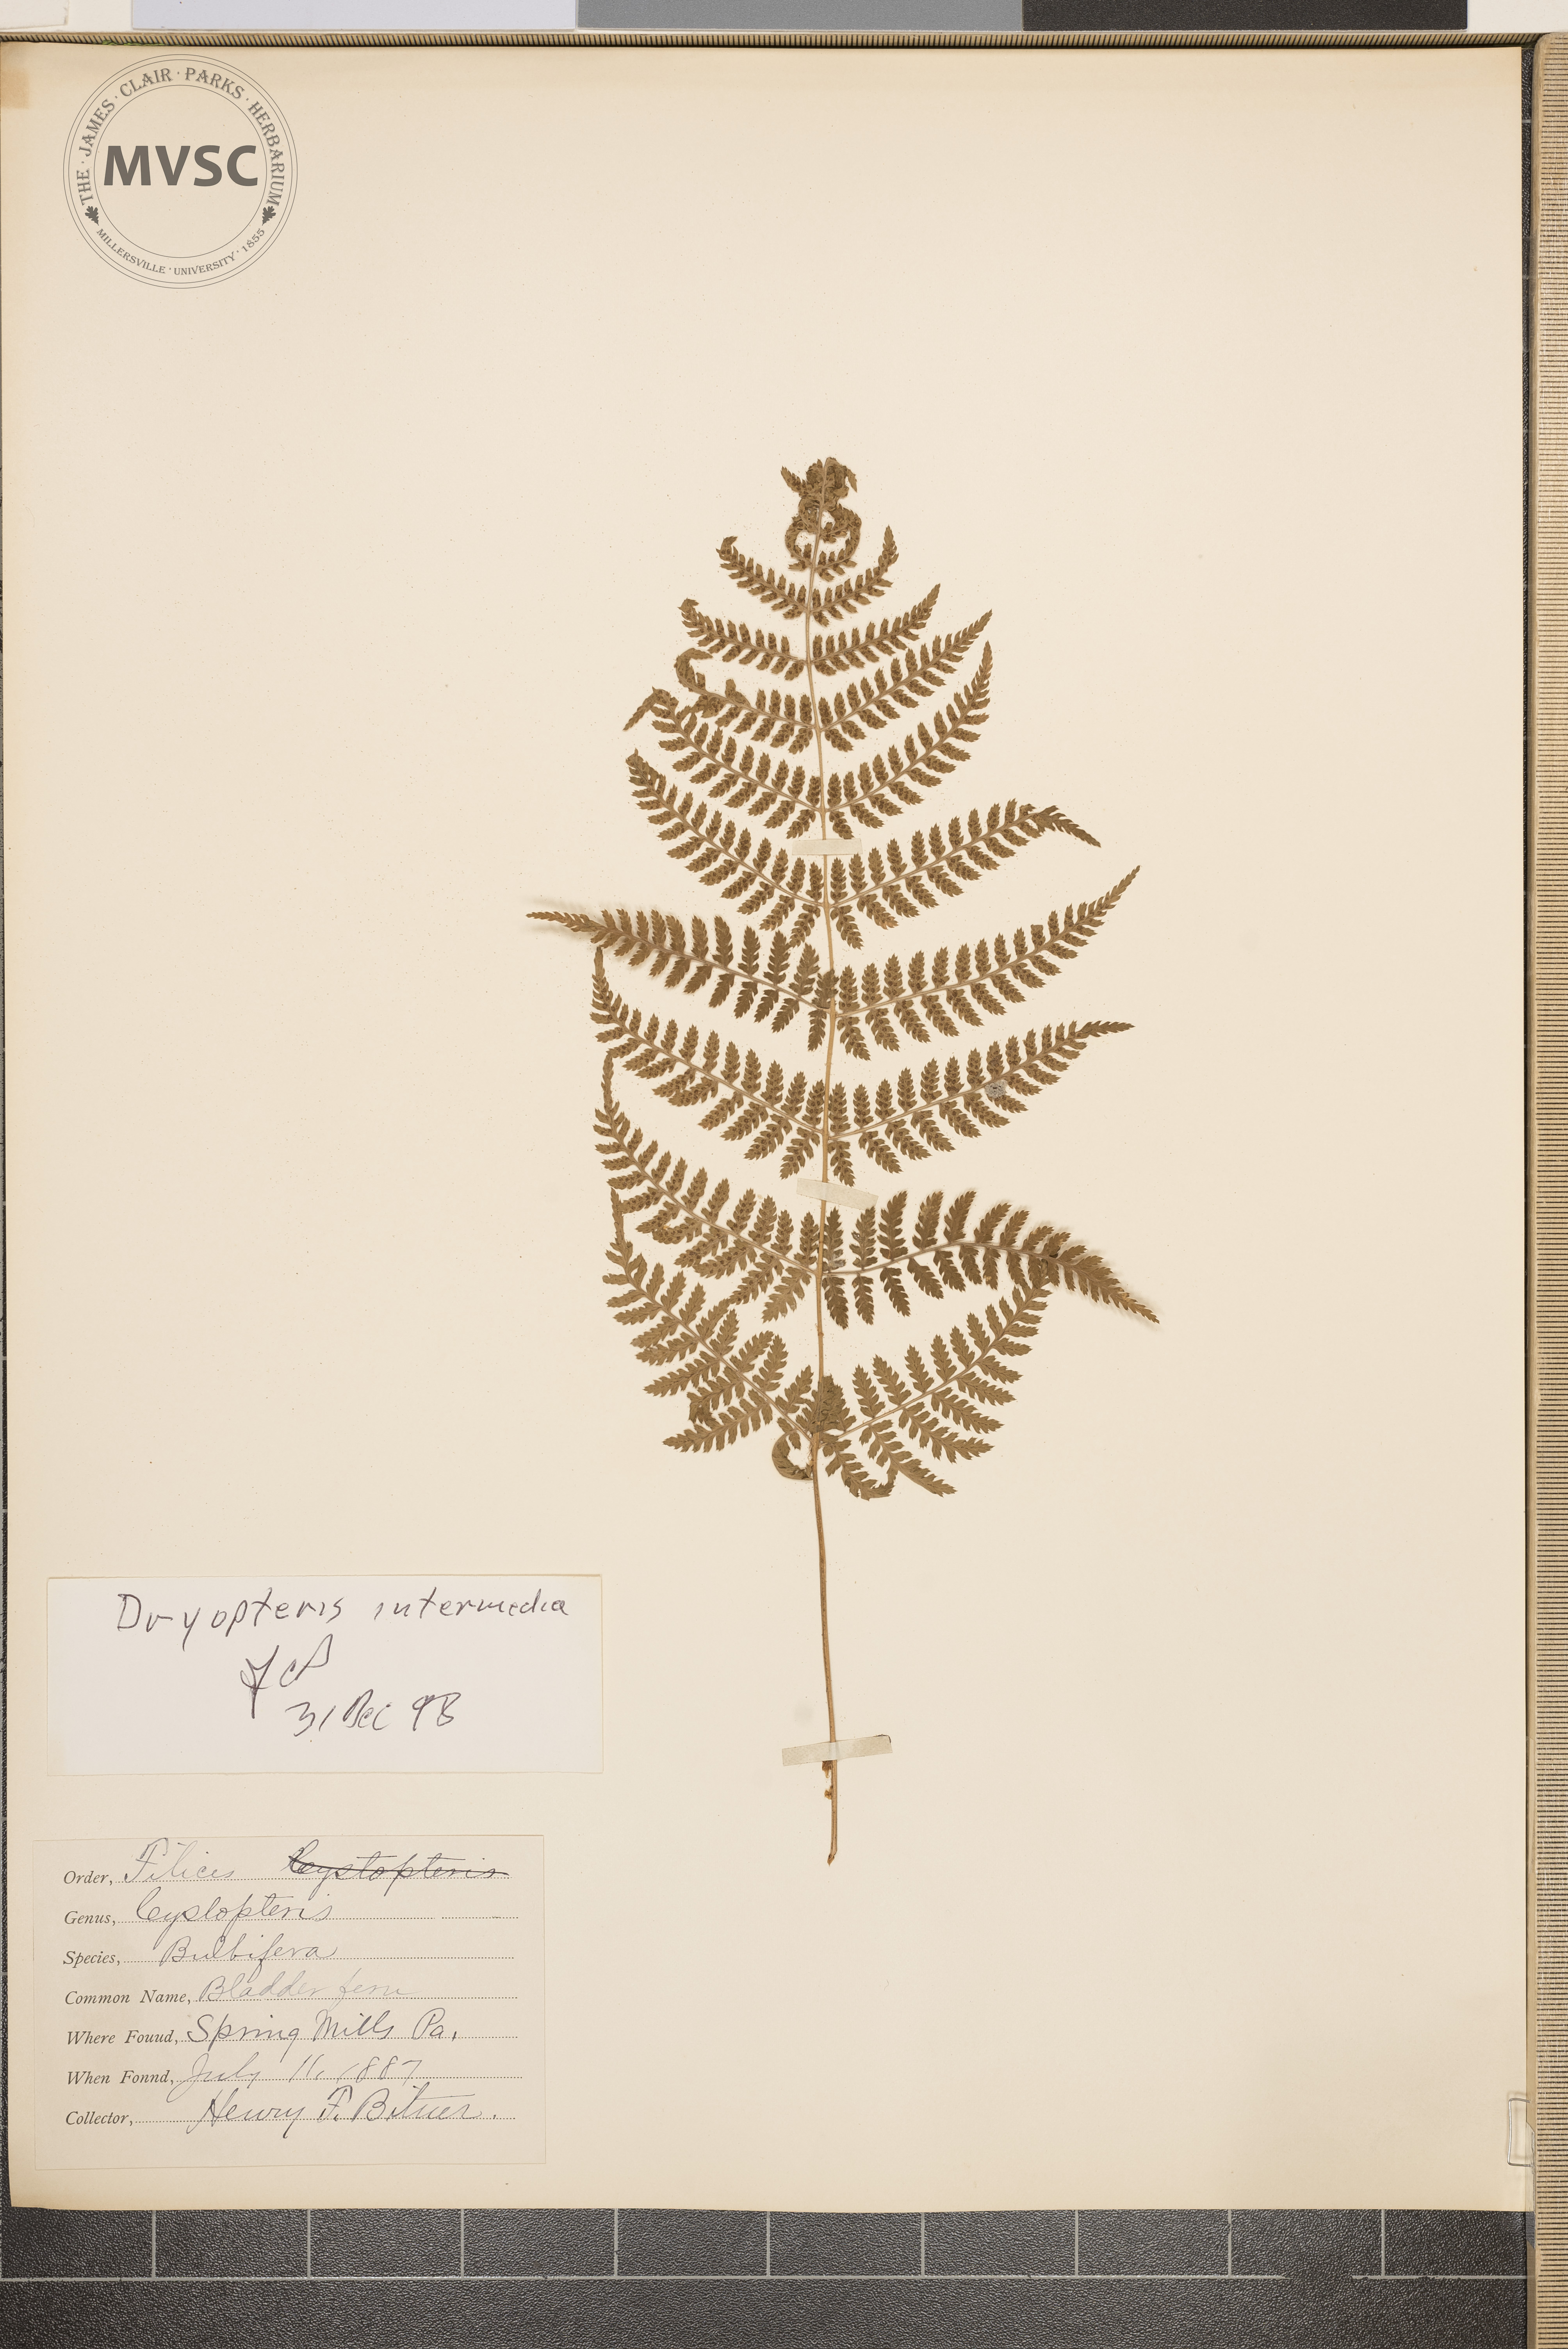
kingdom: Plantae
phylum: Tracheophyta
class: Polypodiopsida
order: Polypodiales
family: Dryopteridaceae
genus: Dryopteris
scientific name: Dryopteris intermedia
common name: Evergreen wood fern
